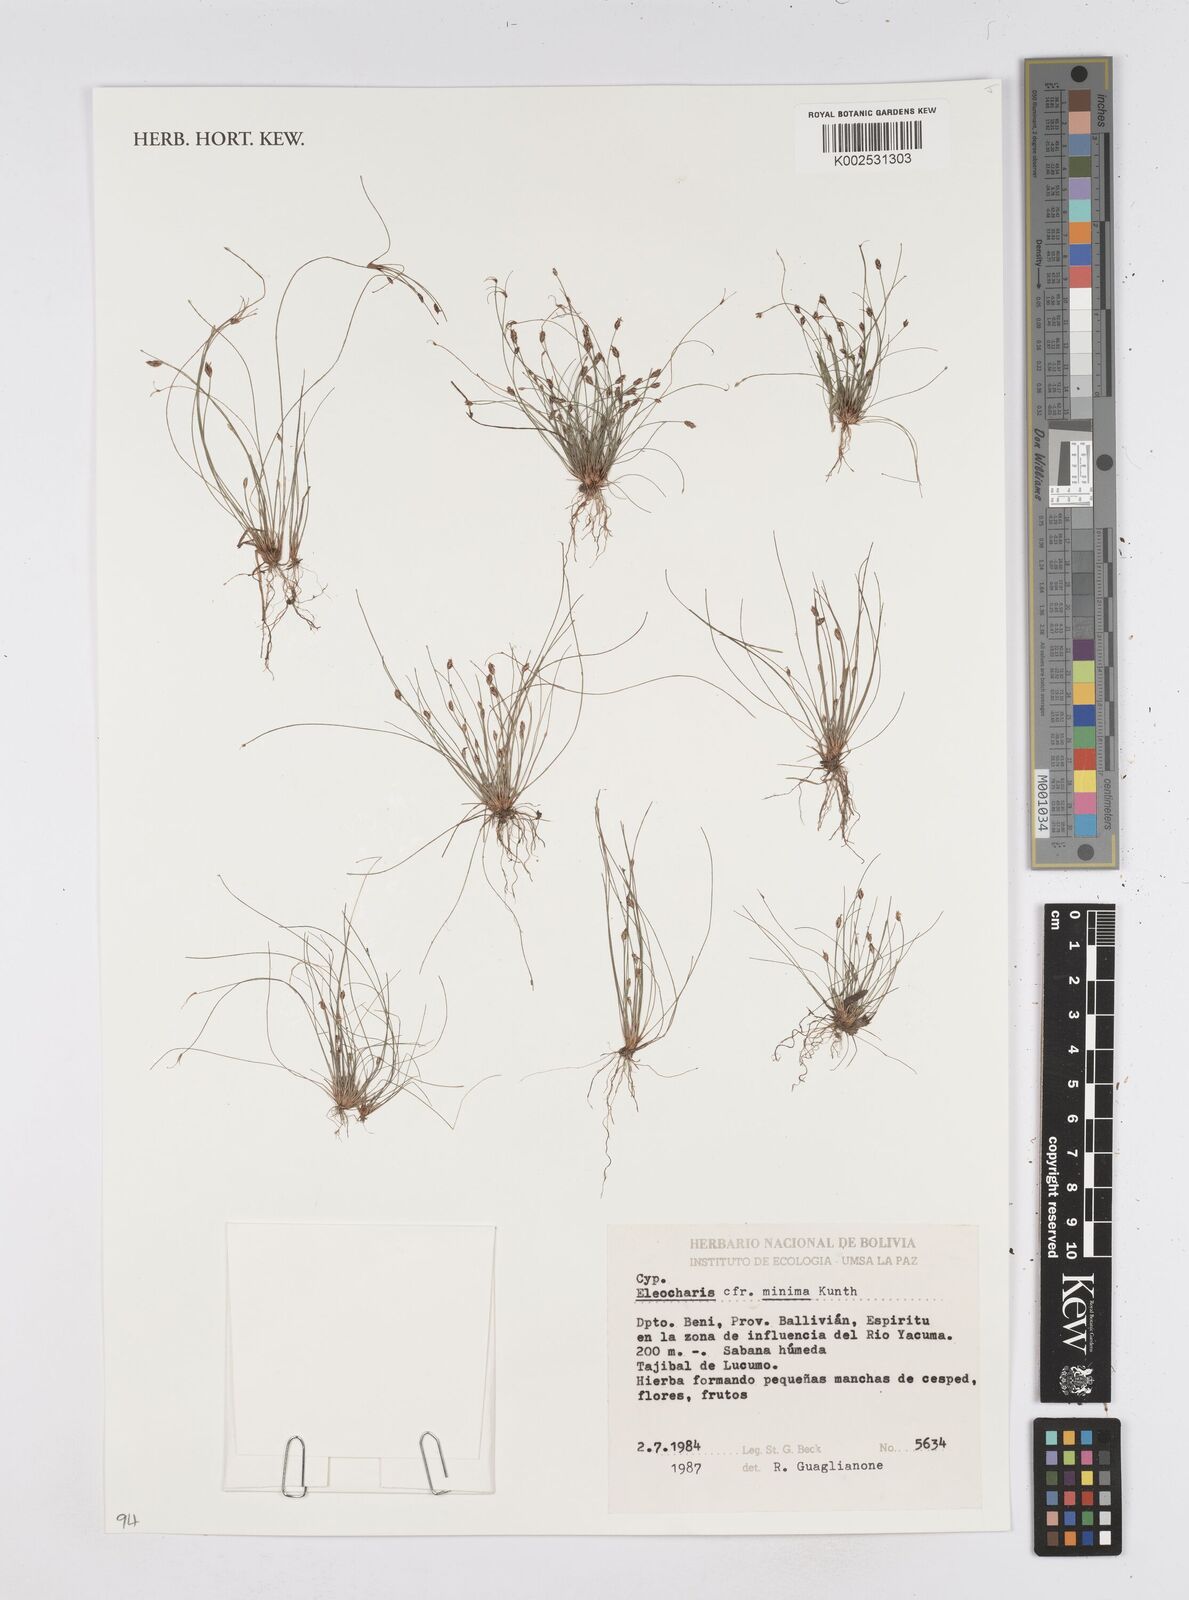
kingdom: Plantae
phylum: Tracheophyta
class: Liliopsida
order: Poales
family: Cyperaceae
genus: Eleocharis
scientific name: Eleocharis minima
